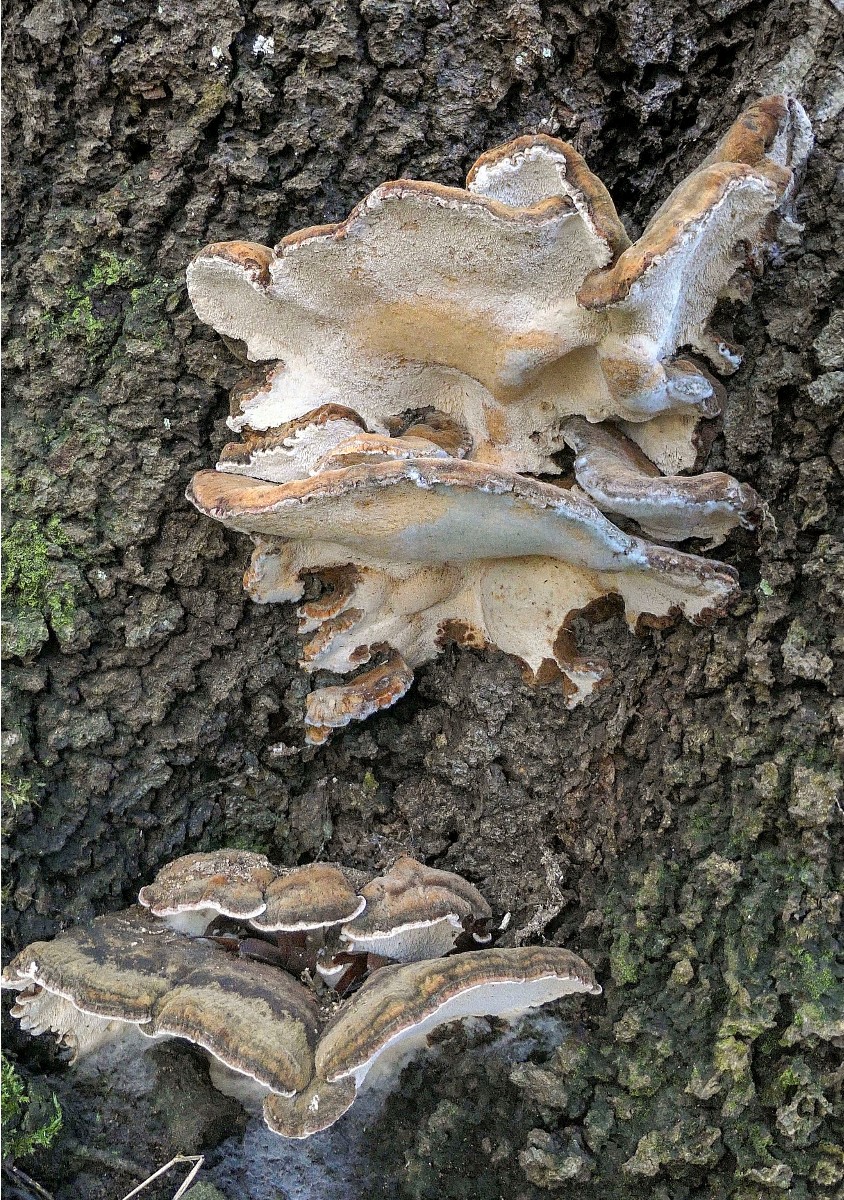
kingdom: Fungi
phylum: Basidiomycota
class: Agaricomycetes
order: Polyporales
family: Ischnodermataceae
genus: Ischnoderma
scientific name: Ischnoderma resinosum
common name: løv-tjæreporesvamp
